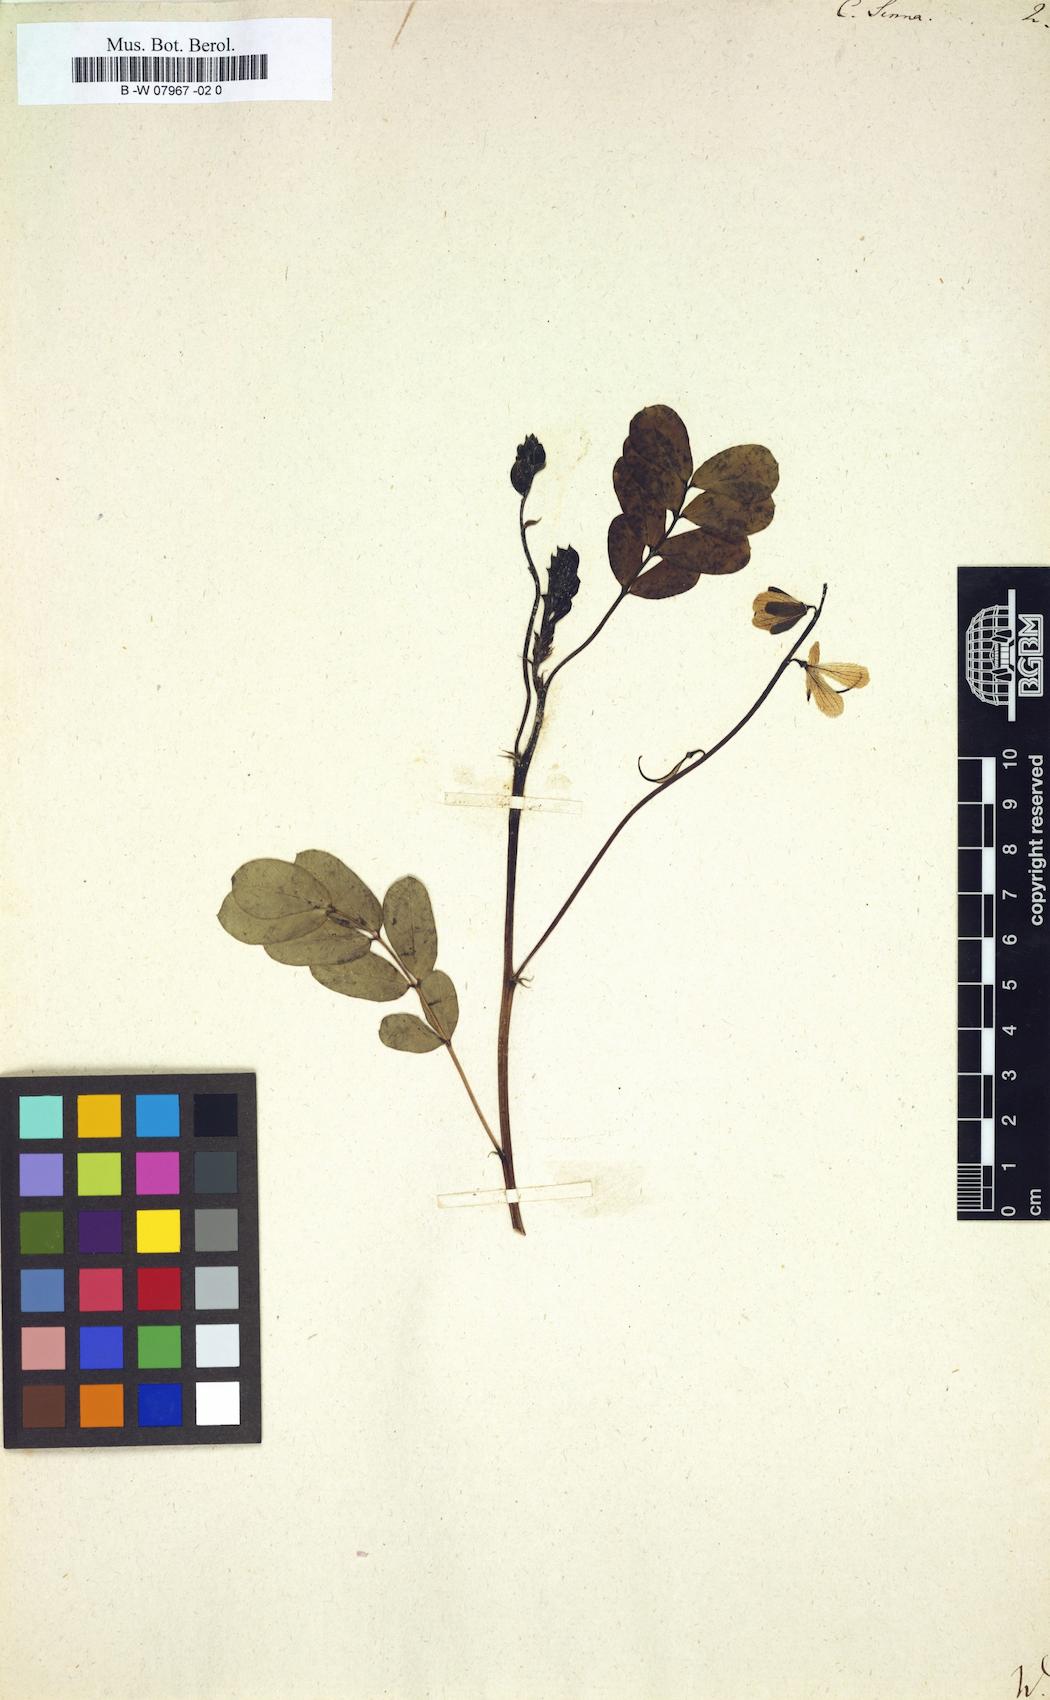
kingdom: Plantae
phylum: Tracheophyta
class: Magnoliopsida
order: Fabales
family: Fabaceae
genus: Senna
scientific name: Senna alexandrina
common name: True senna
